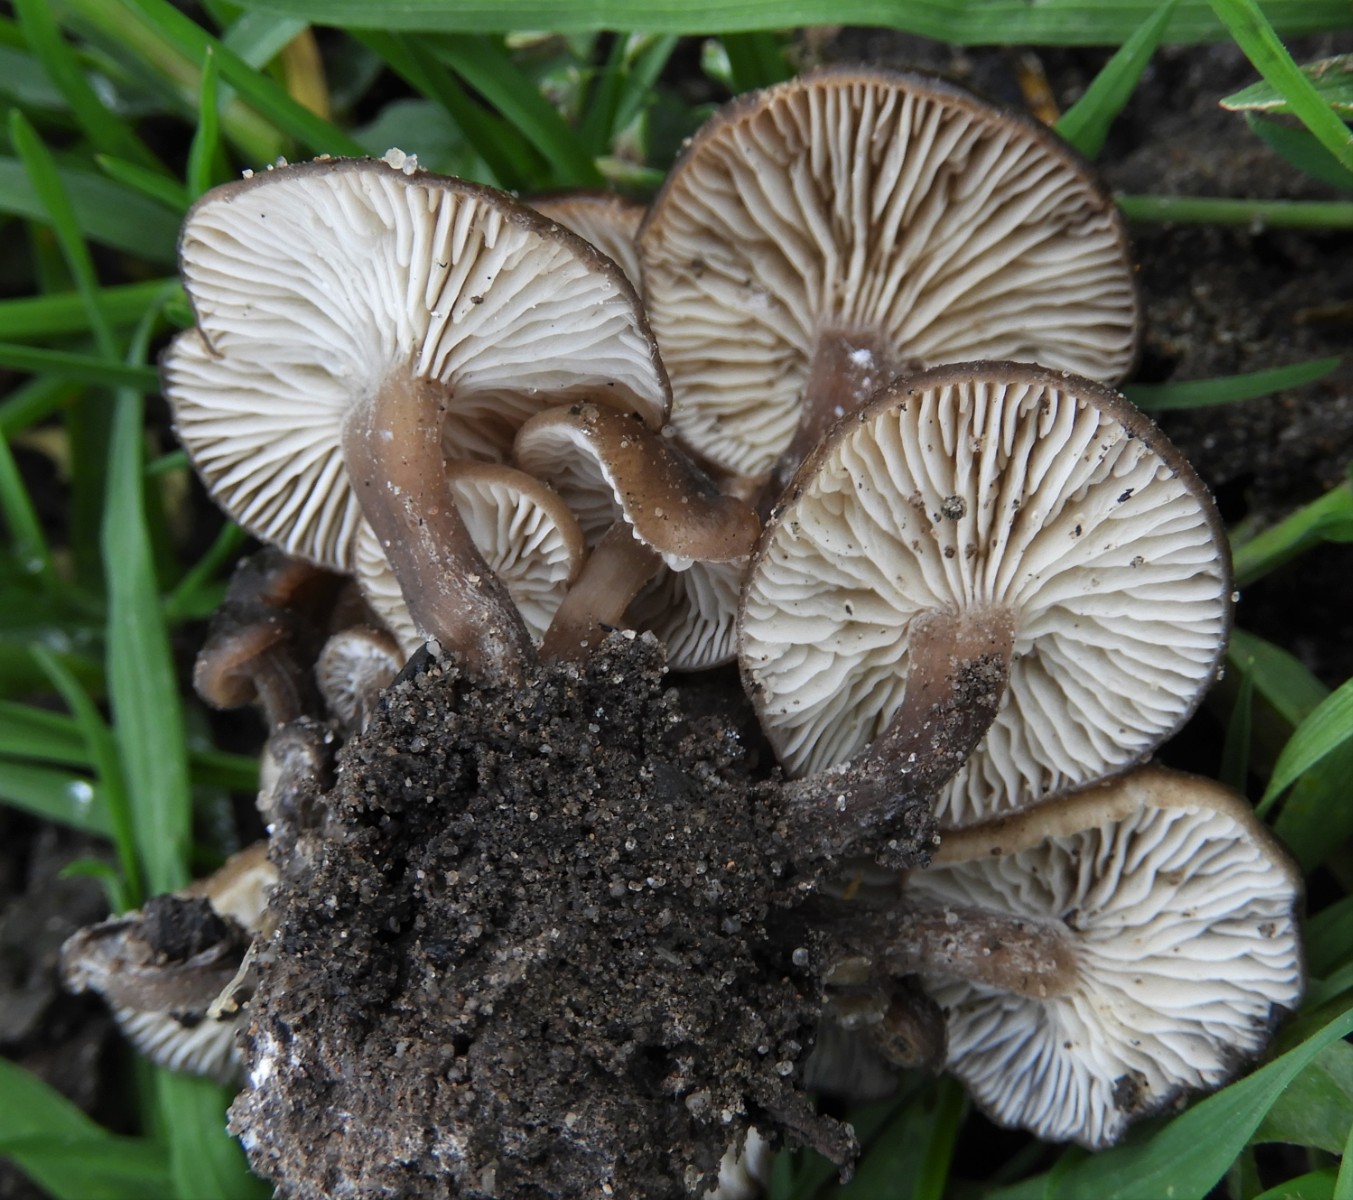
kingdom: Fungi
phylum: Basidiomycota
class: Agaricomycetes
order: Agaricales
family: Lyophyllaceae
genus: Lyophyllum
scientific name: Lyophyllum
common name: gråblad
